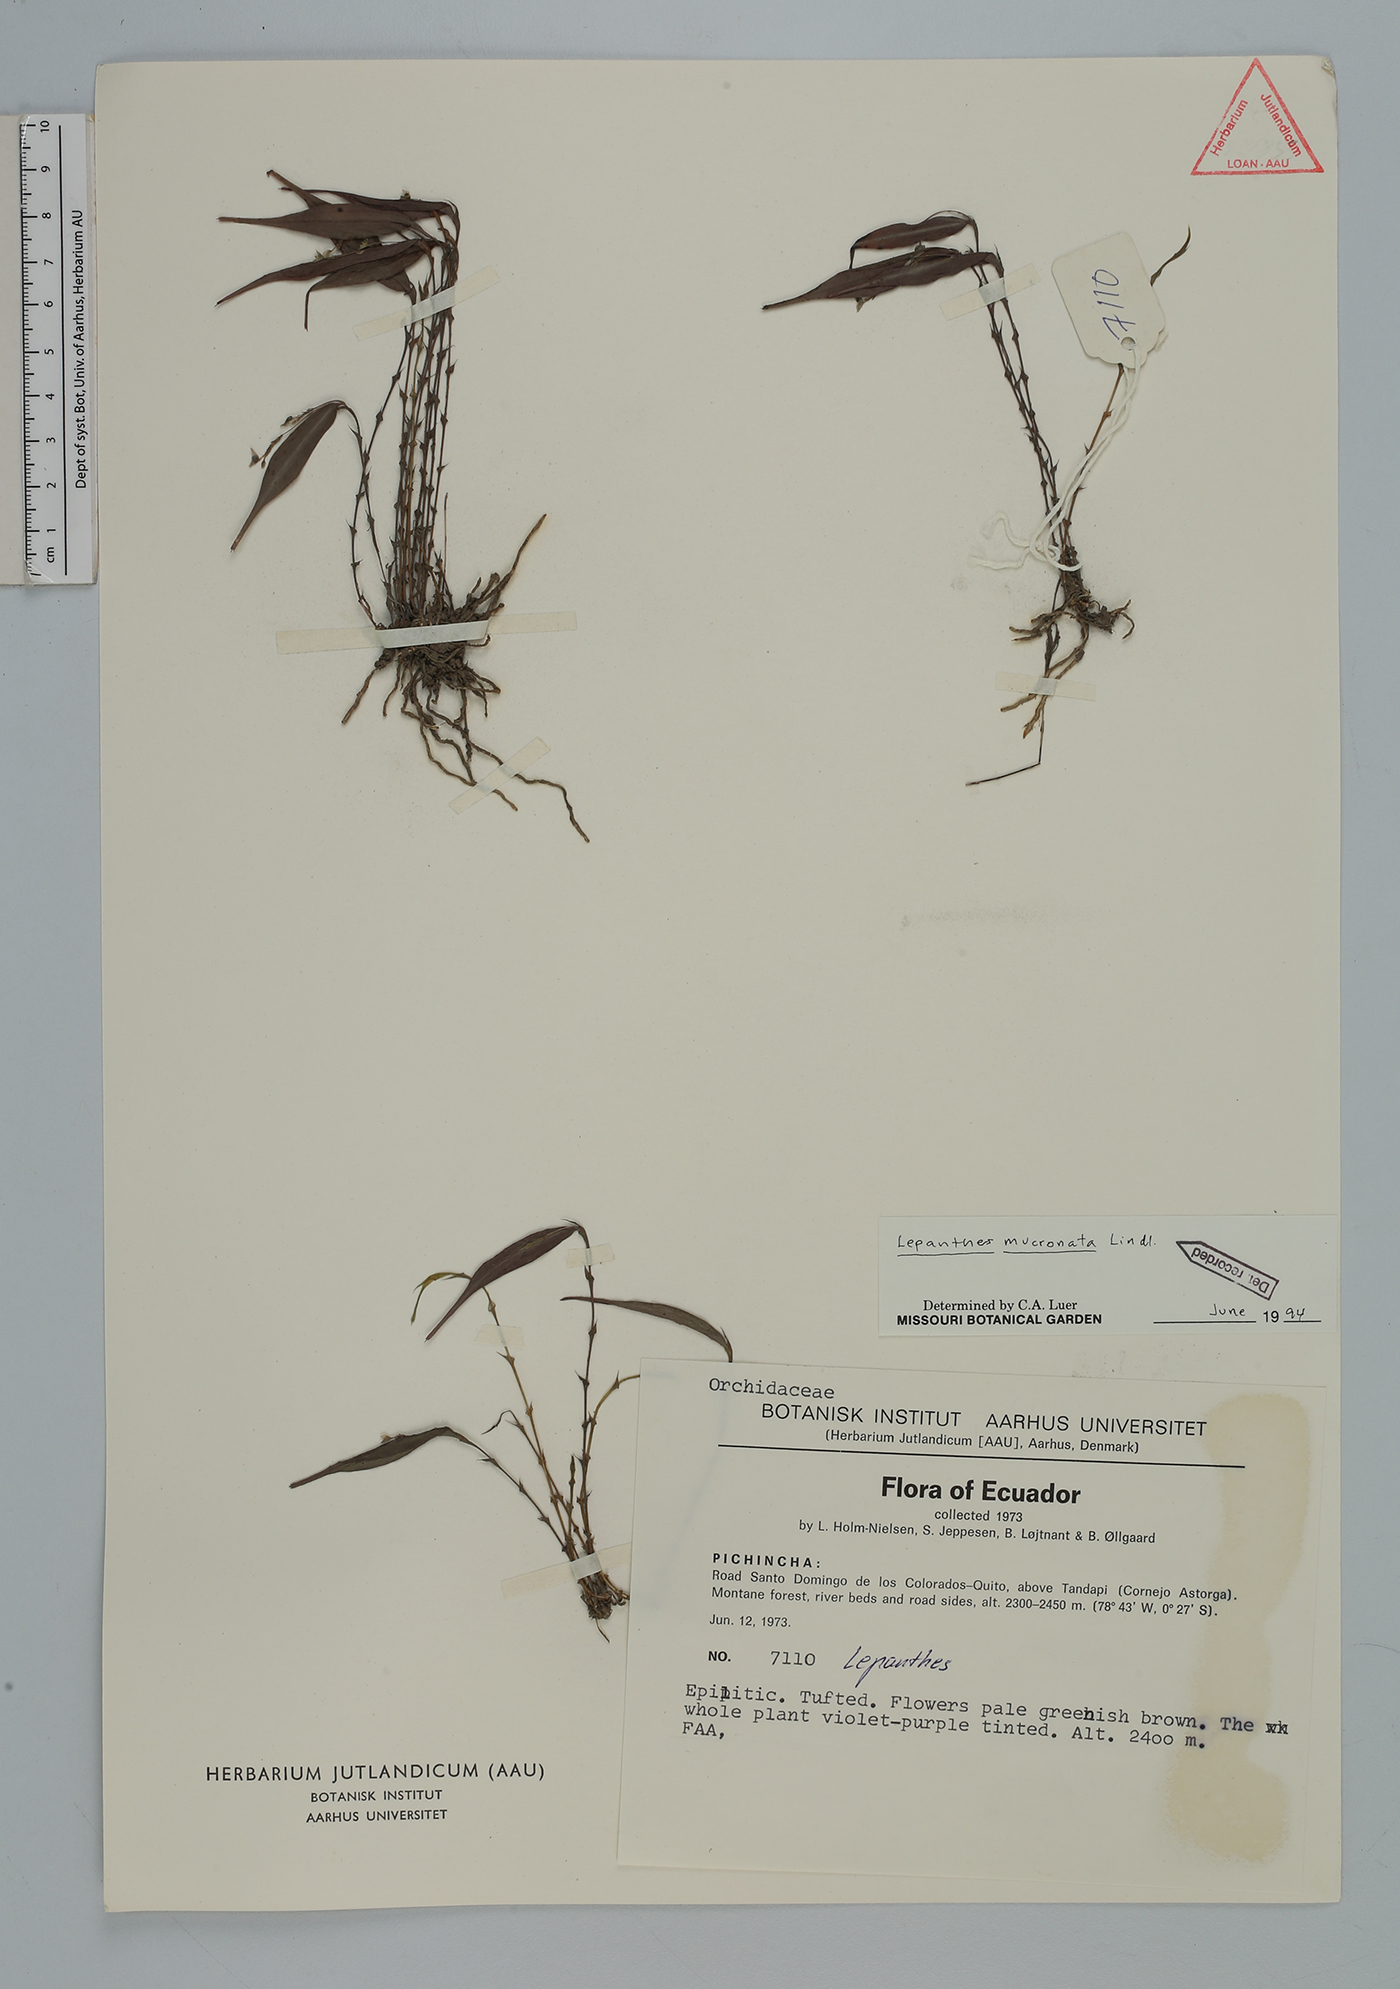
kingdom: Plantae
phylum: Tracheophyta
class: Liliopsida
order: Asparagales
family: Orchidaceae
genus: Lepanthes
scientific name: Lepanthes mucronata
